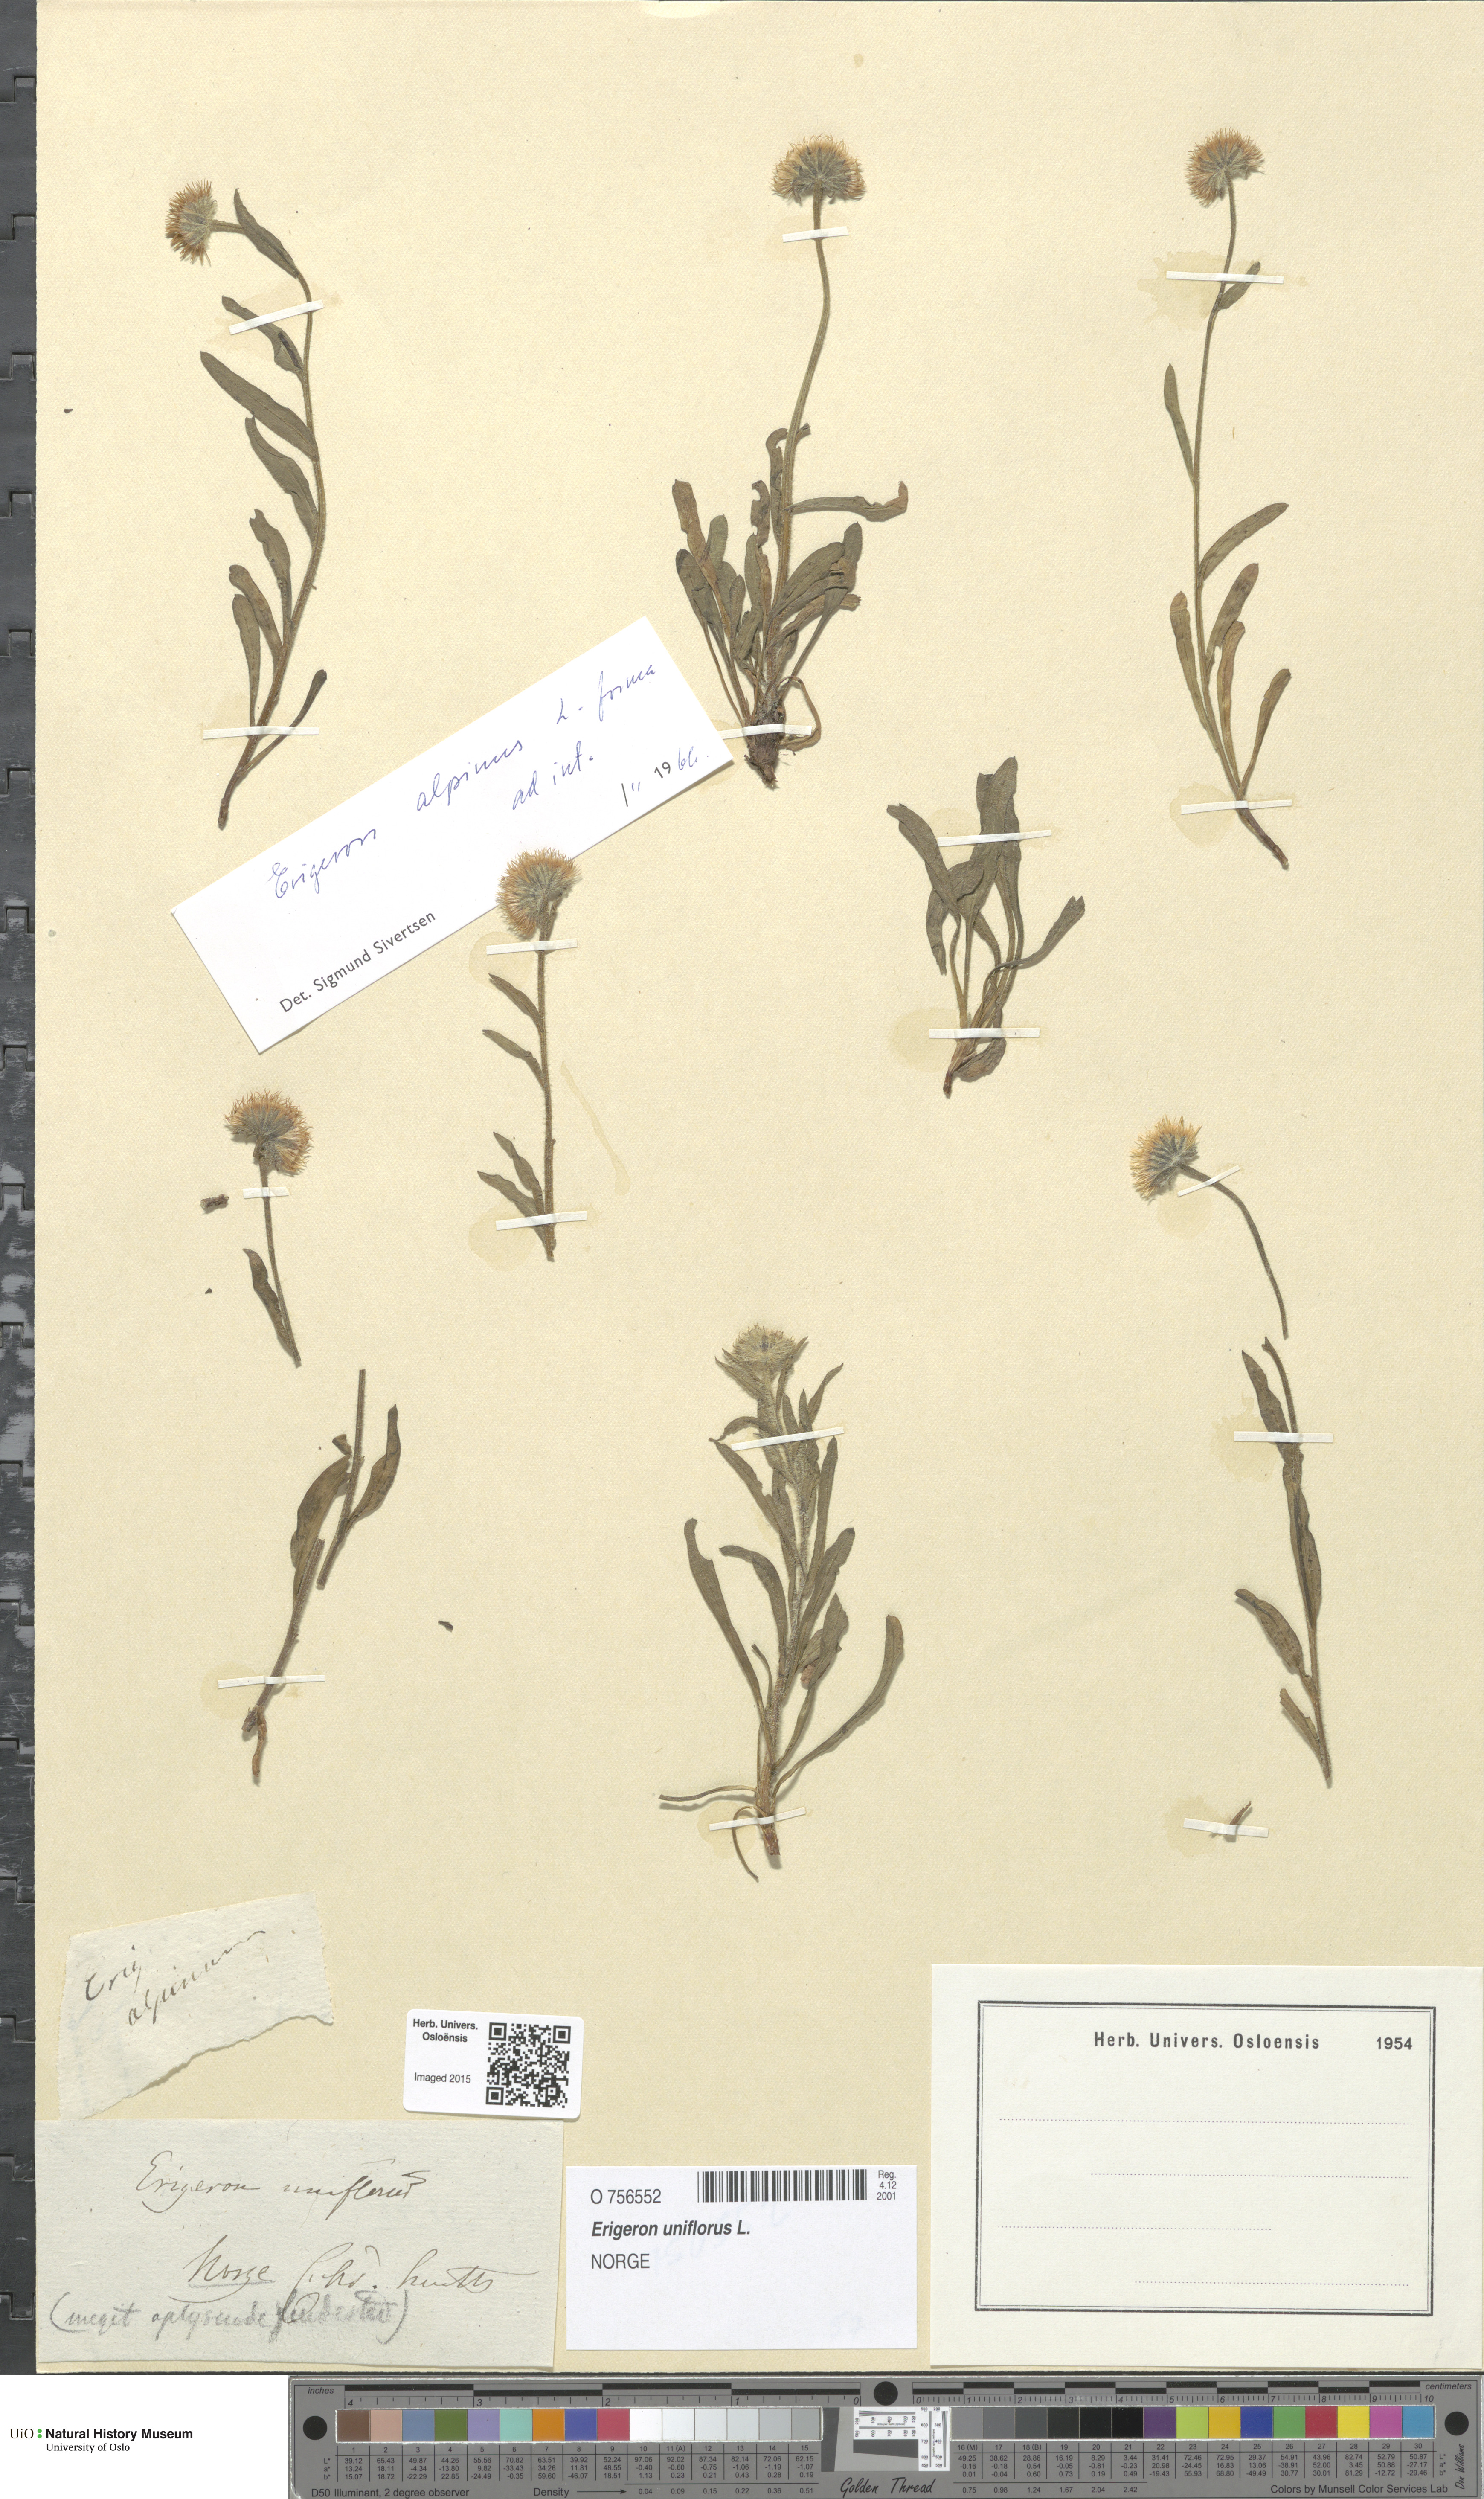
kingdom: Plantae
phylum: Tracheophyta
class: Magnoliopsida
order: Asterales
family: Asteraceae
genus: Erigeron
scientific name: Erigeron borealis
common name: Alpine fleabane
